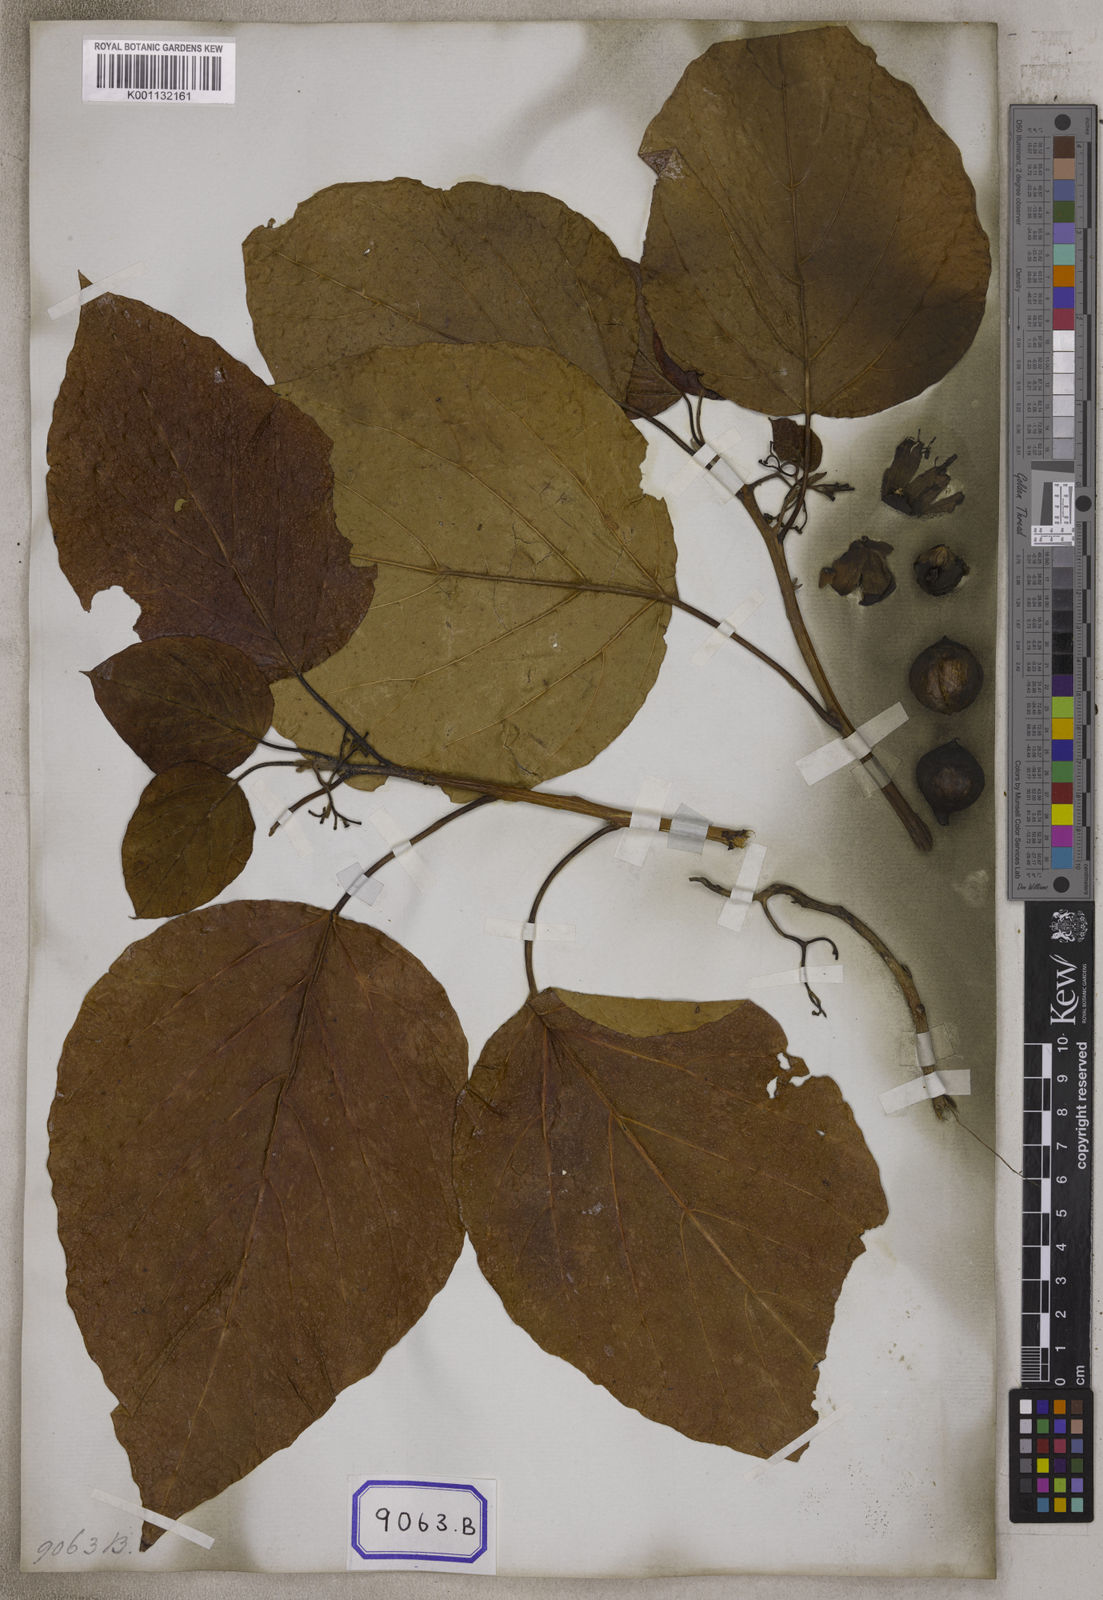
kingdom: Plantae
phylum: Tracheophyta
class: Magnoliopsida
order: Boraginales
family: Cordiaceae
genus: Cordia
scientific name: Cordia subcordata
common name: Mareer
